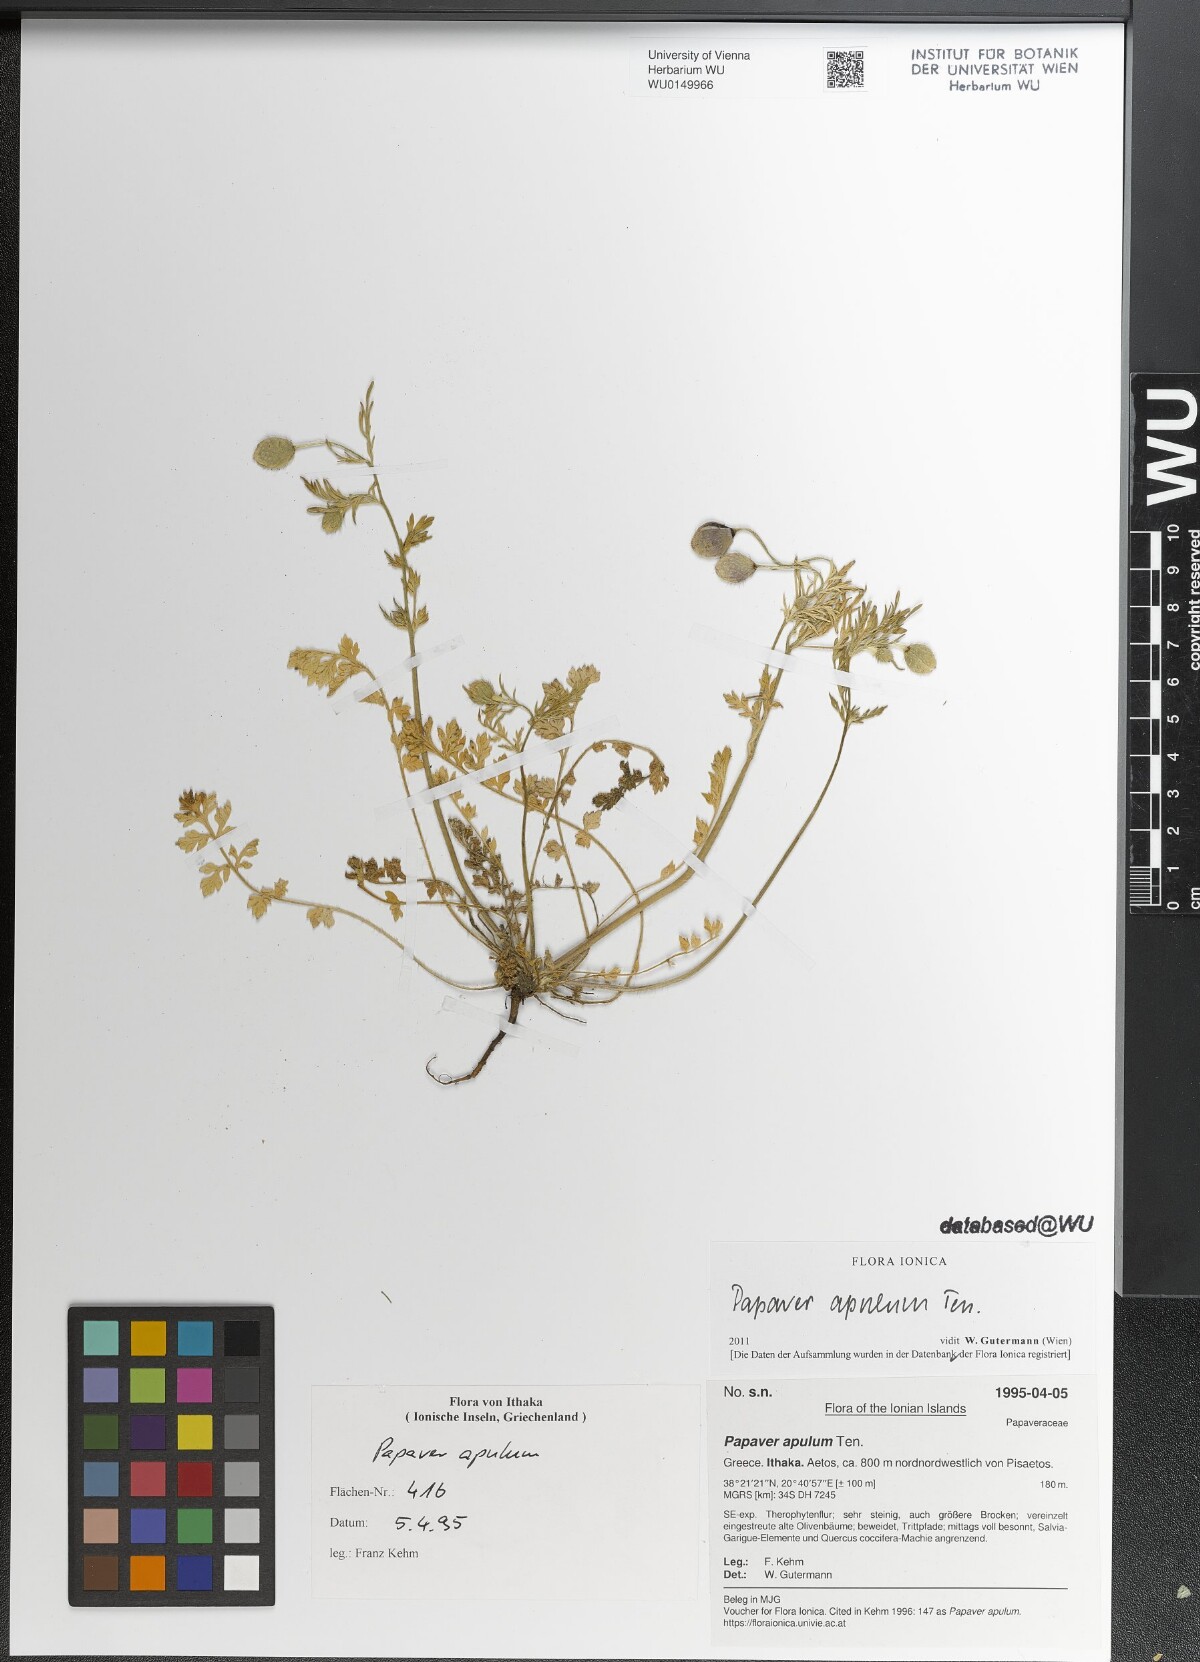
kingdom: Plantae
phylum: Tracheophyta
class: Magnoliopsida
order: Ranunculales
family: Papaveraceae
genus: Roemeria
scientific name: Roemeria apula
